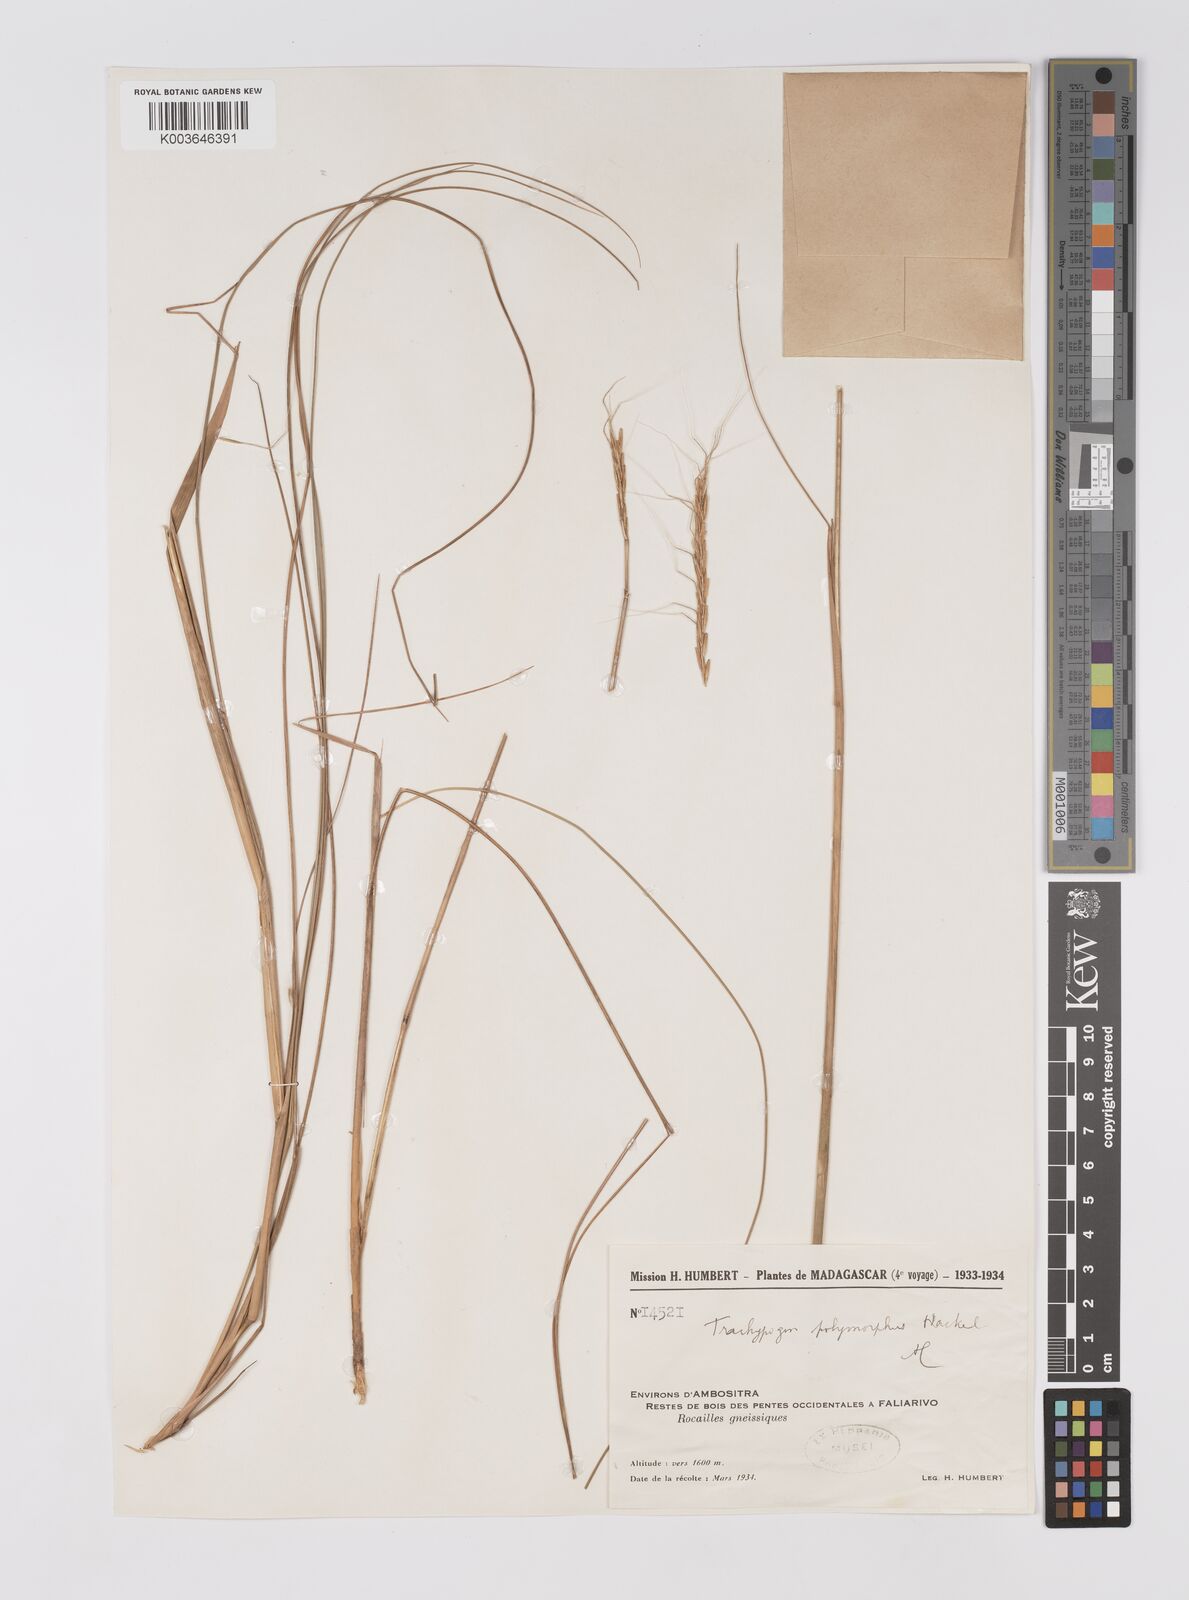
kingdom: Plantae
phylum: Tracheophyta
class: Liliopsida
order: Poales
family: Poaceae
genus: Trachypogon
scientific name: Trachypogon spicatus
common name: Crinkle-awn
